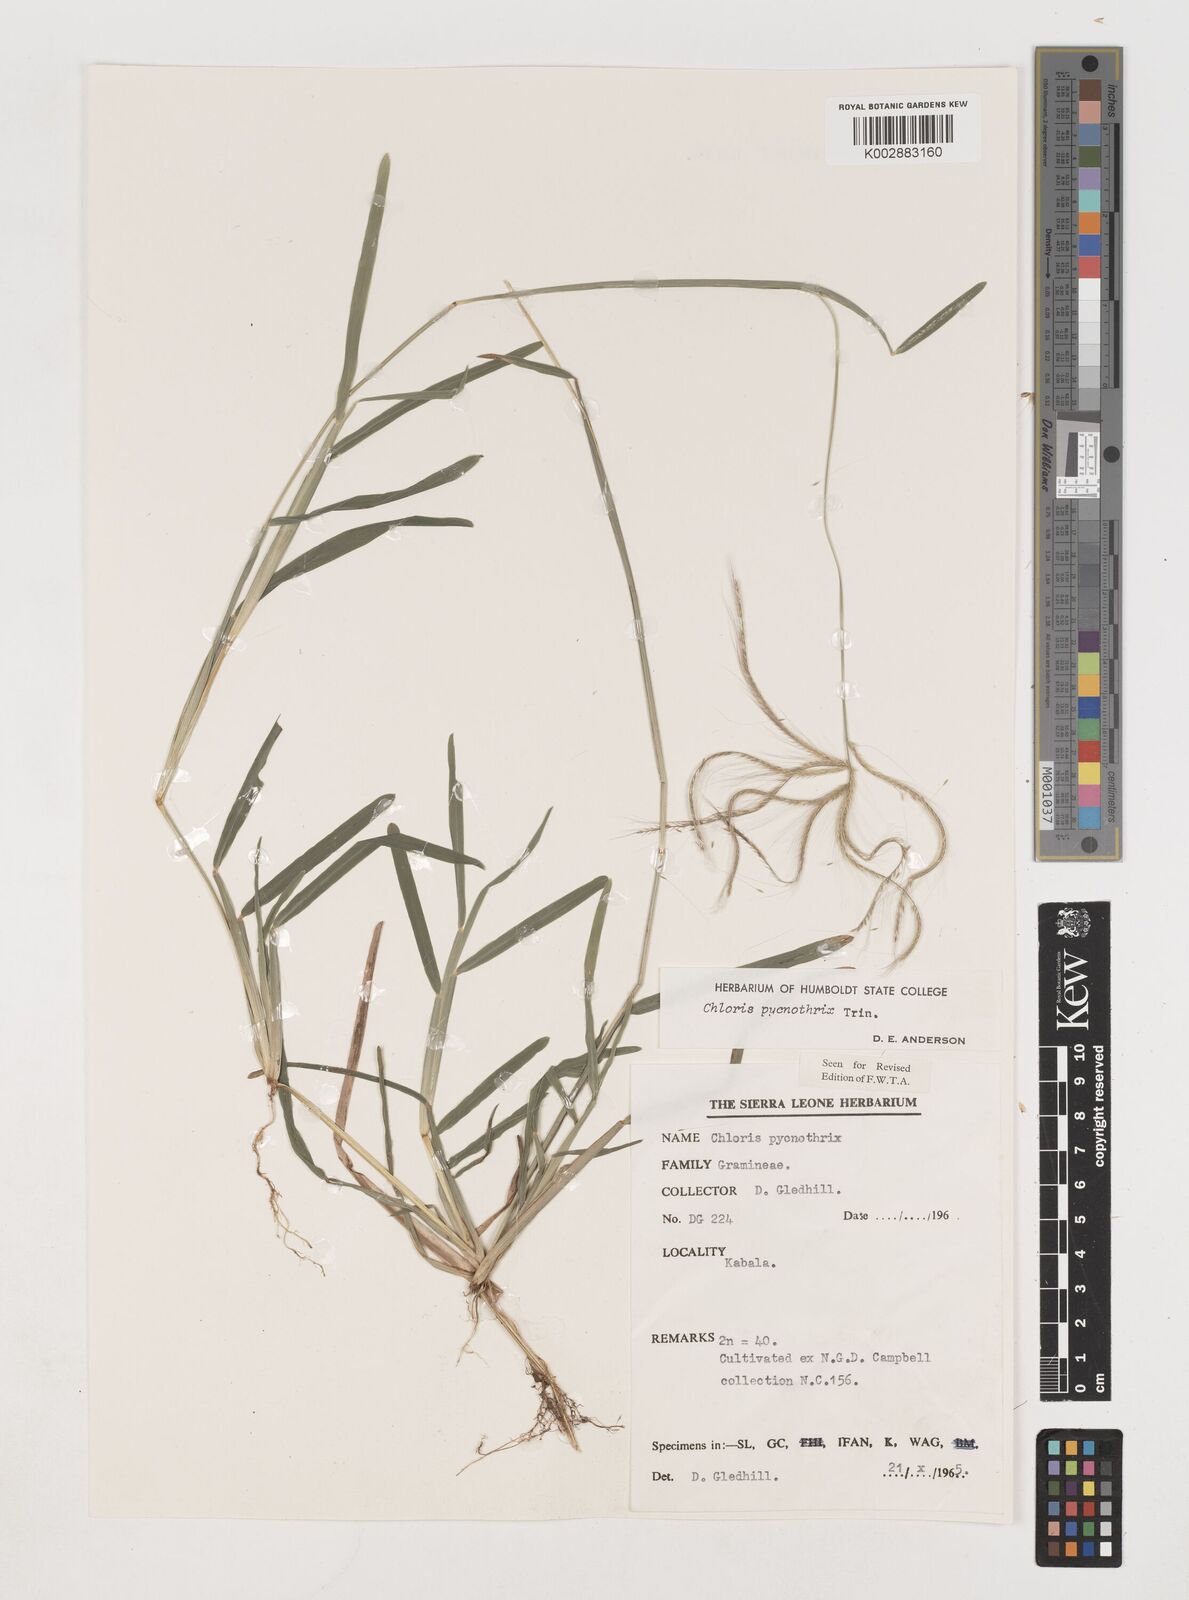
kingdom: Plantae
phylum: Tracheophyta
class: Liliopsida
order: Poales
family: Poaceae
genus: Chloris
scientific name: Chloris pycnothrix
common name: Spiderweb chloris
